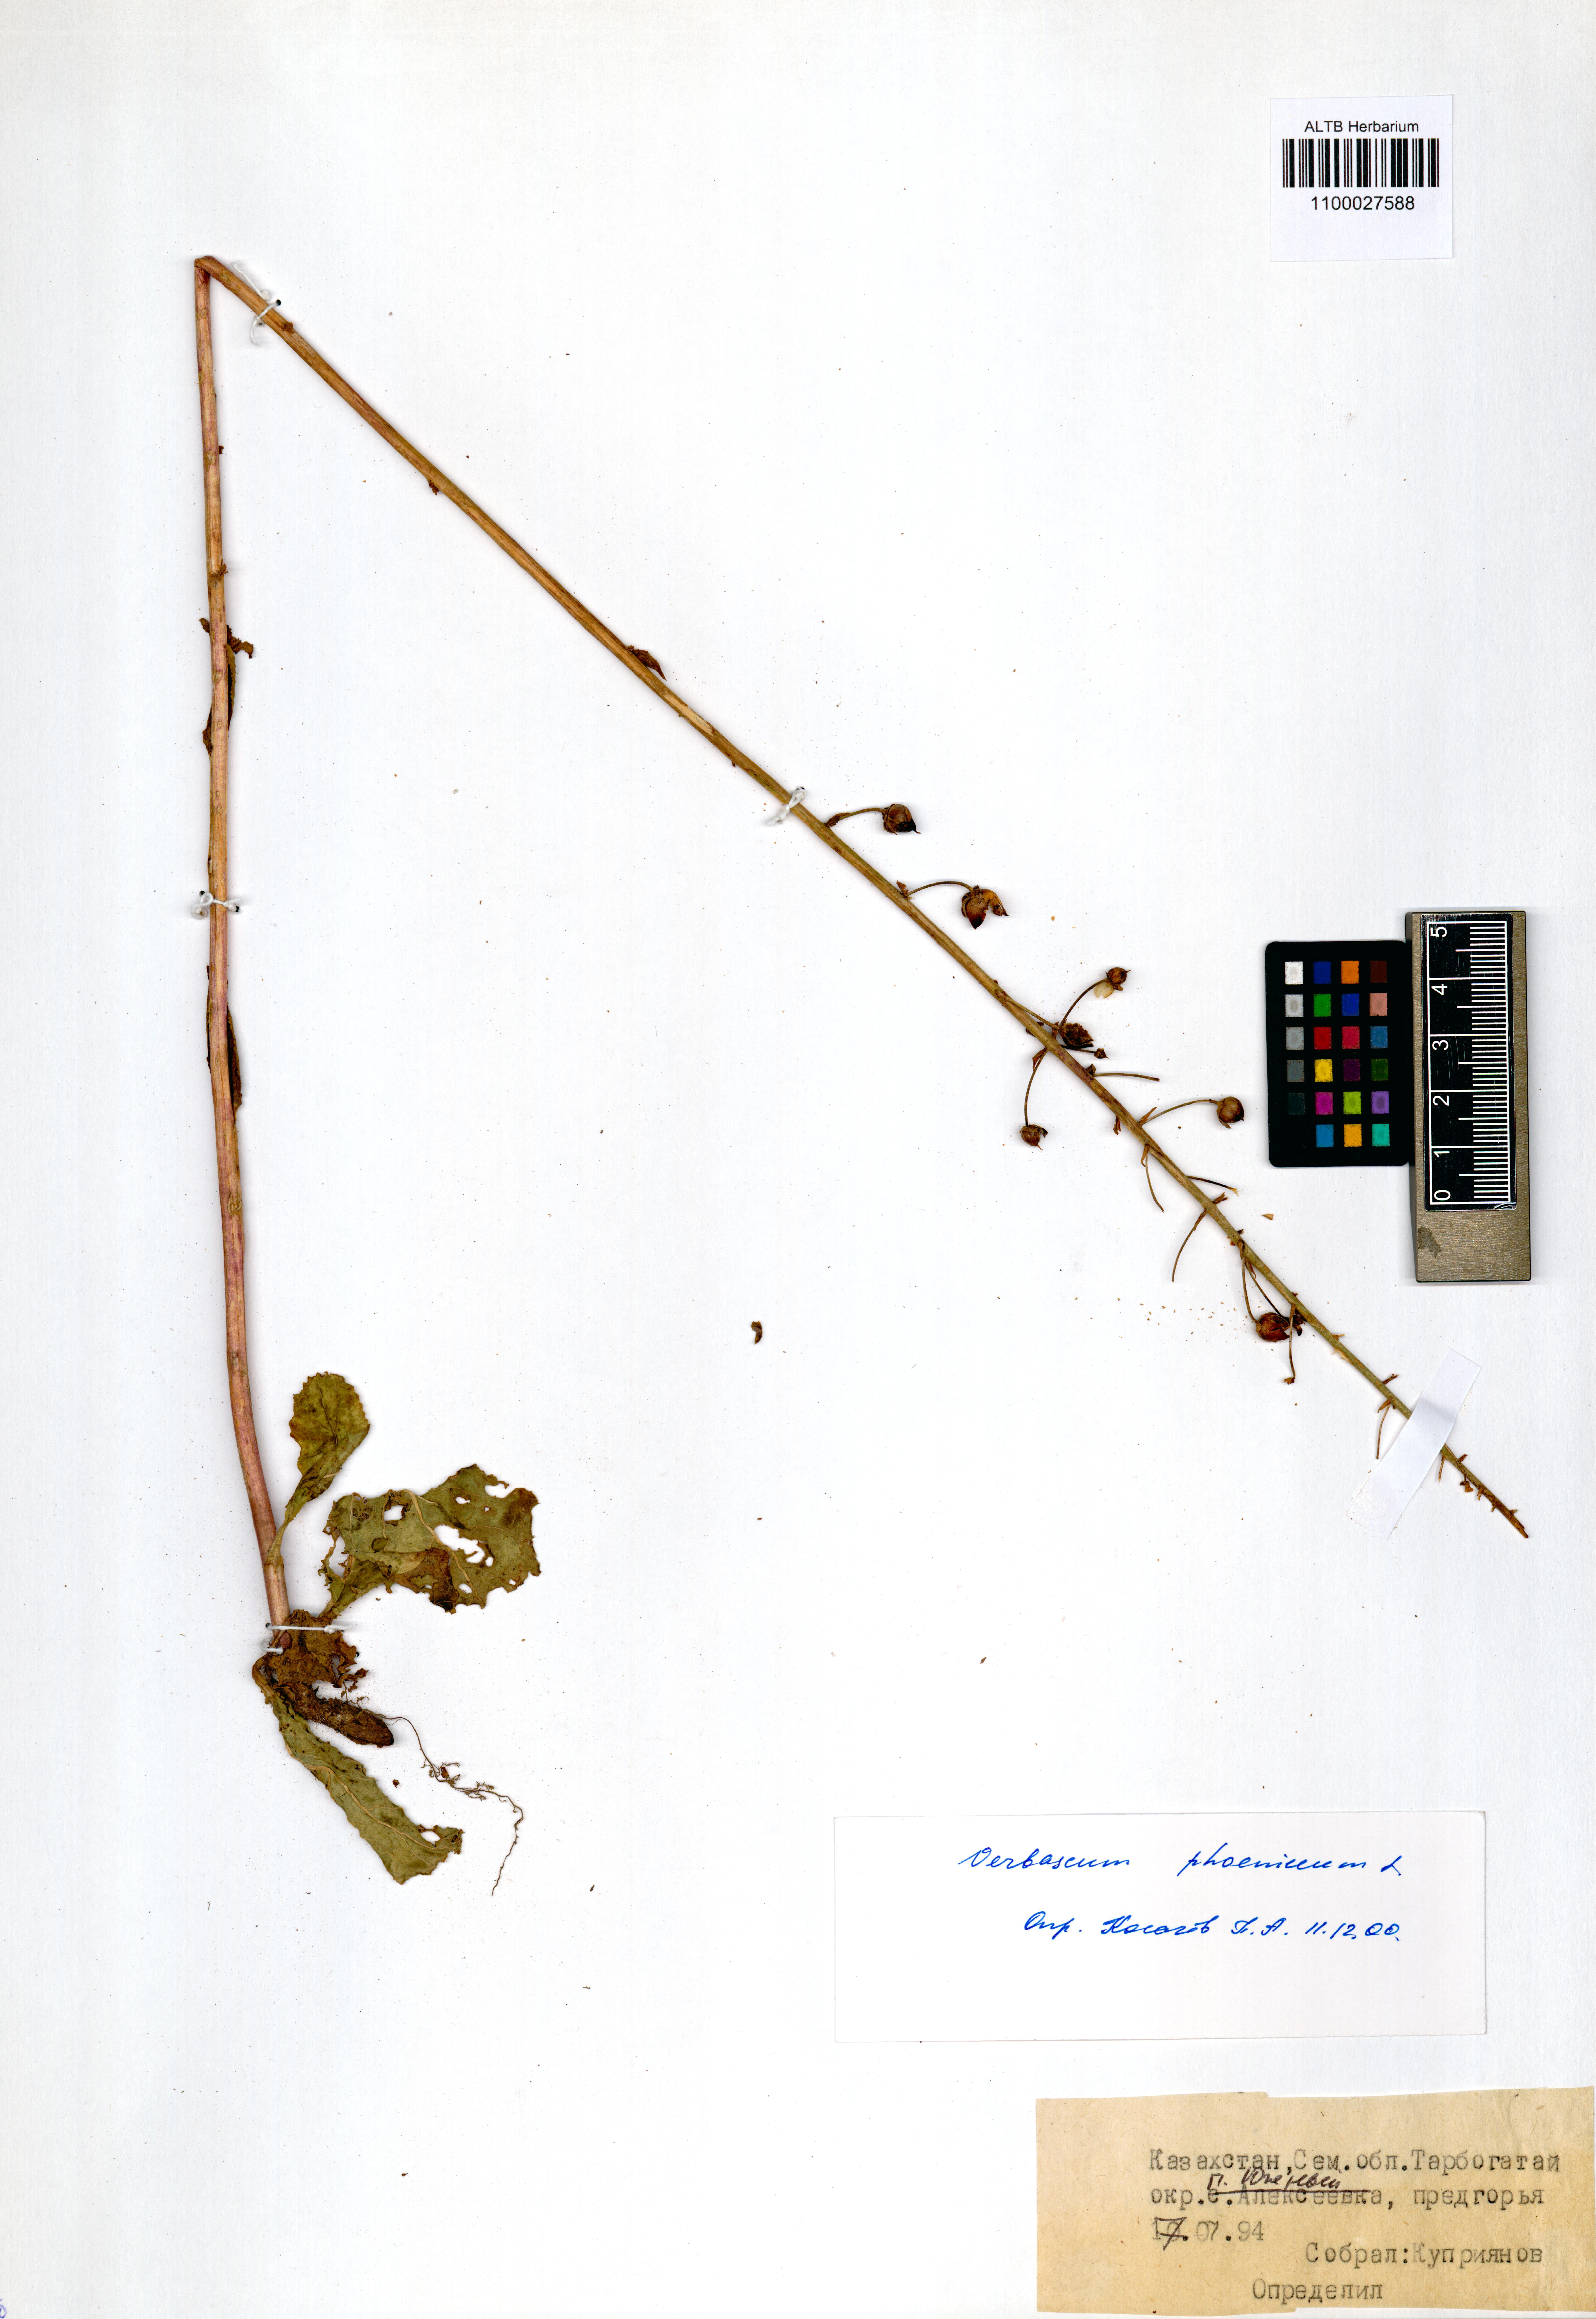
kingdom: Plantae
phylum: Tracheophyta
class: Magnoliopsida
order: Lamiales
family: Scrophulariaceae
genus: Verbascum
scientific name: Verbascum phoeniceum
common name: Purple mullein
